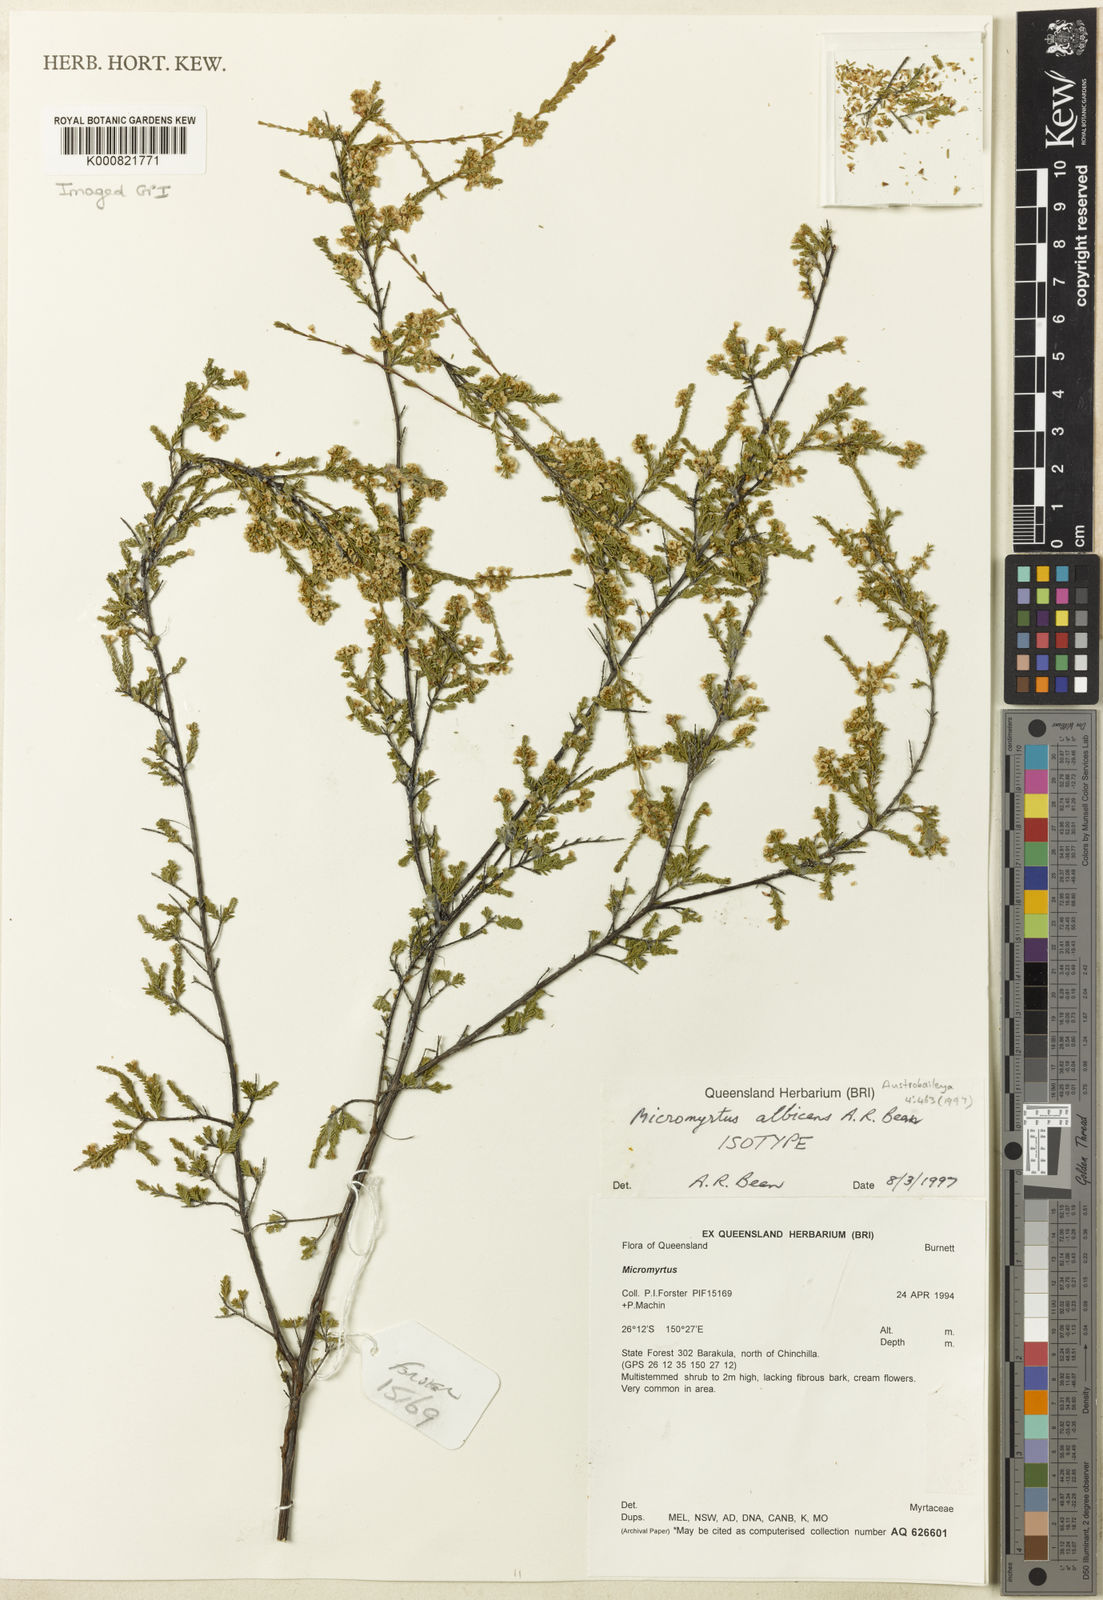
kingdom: Plantae
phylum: Tracheophyta
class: Magnoliopsida
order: Myrtales
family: Myrtaceae
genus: Micromyrtus
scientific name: Micromyrtus albicans
